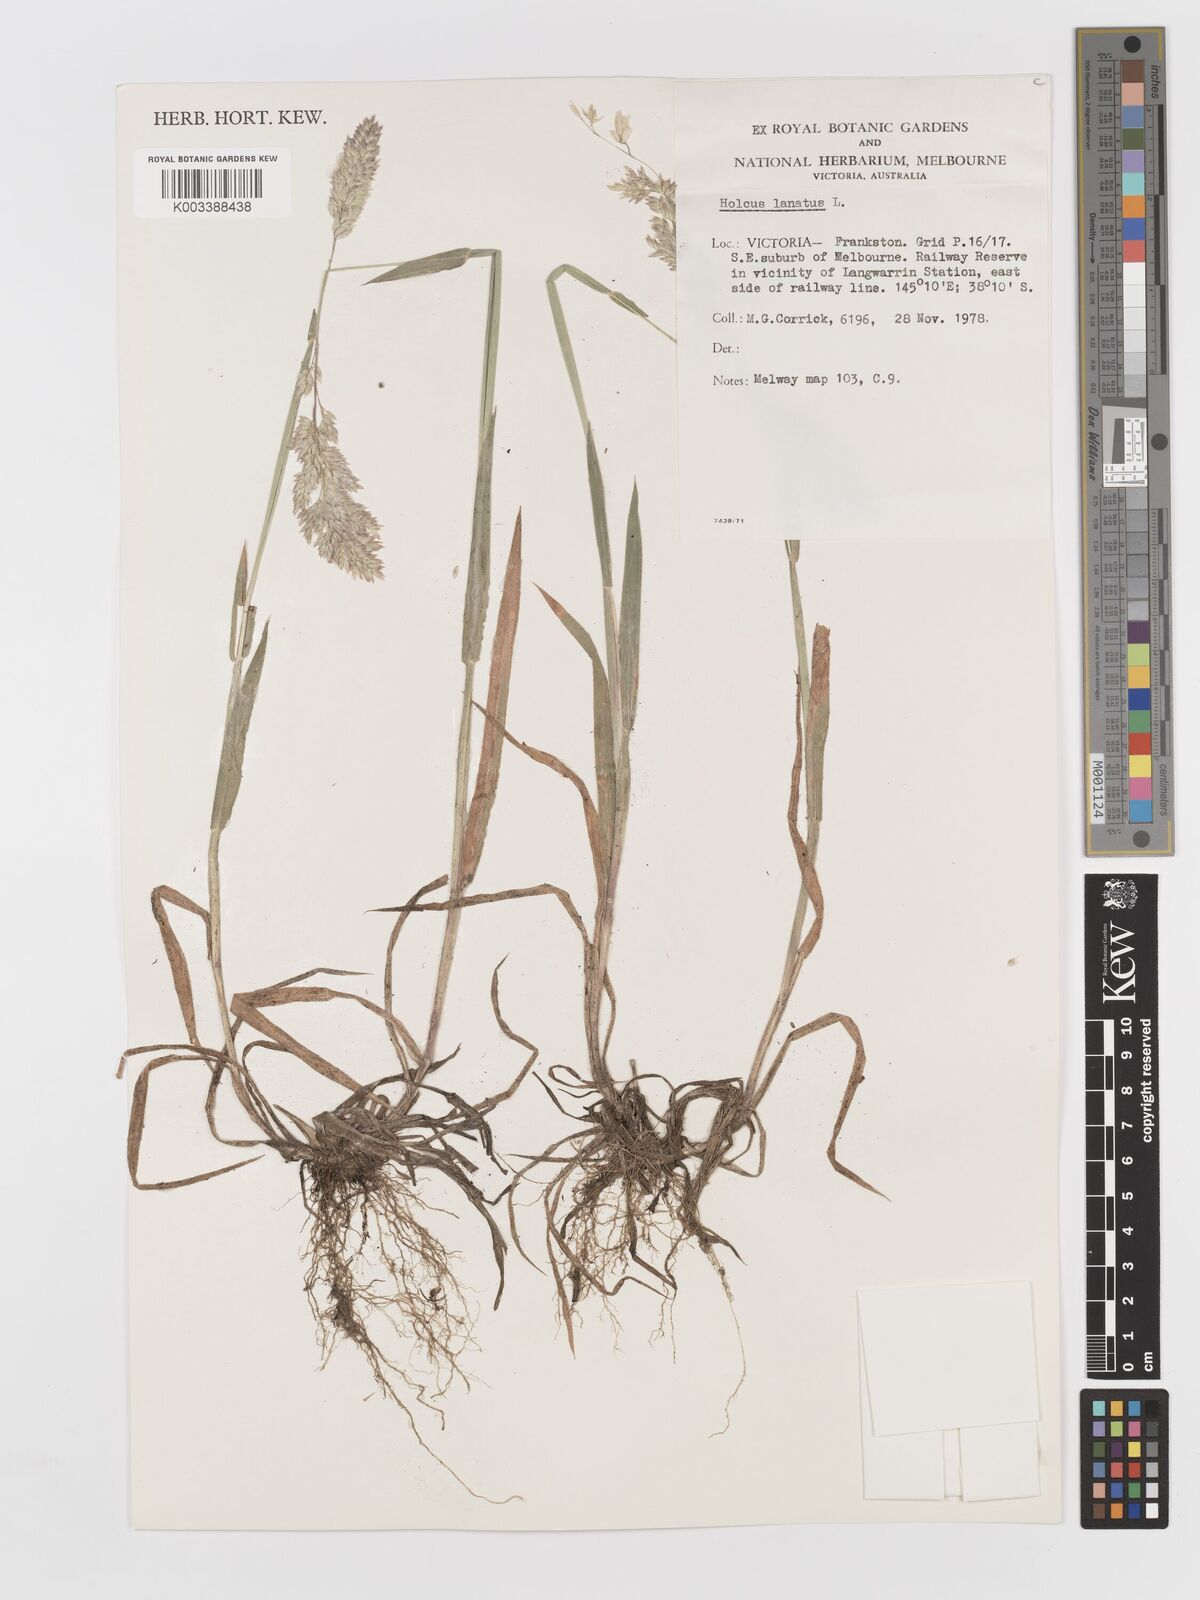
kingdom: Plantae
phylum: Tracheophyta
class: Liliopsida
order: Poales
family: Poaceae
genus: Holcus
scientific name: Holcus lanatus
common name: Yorkshire-fog
